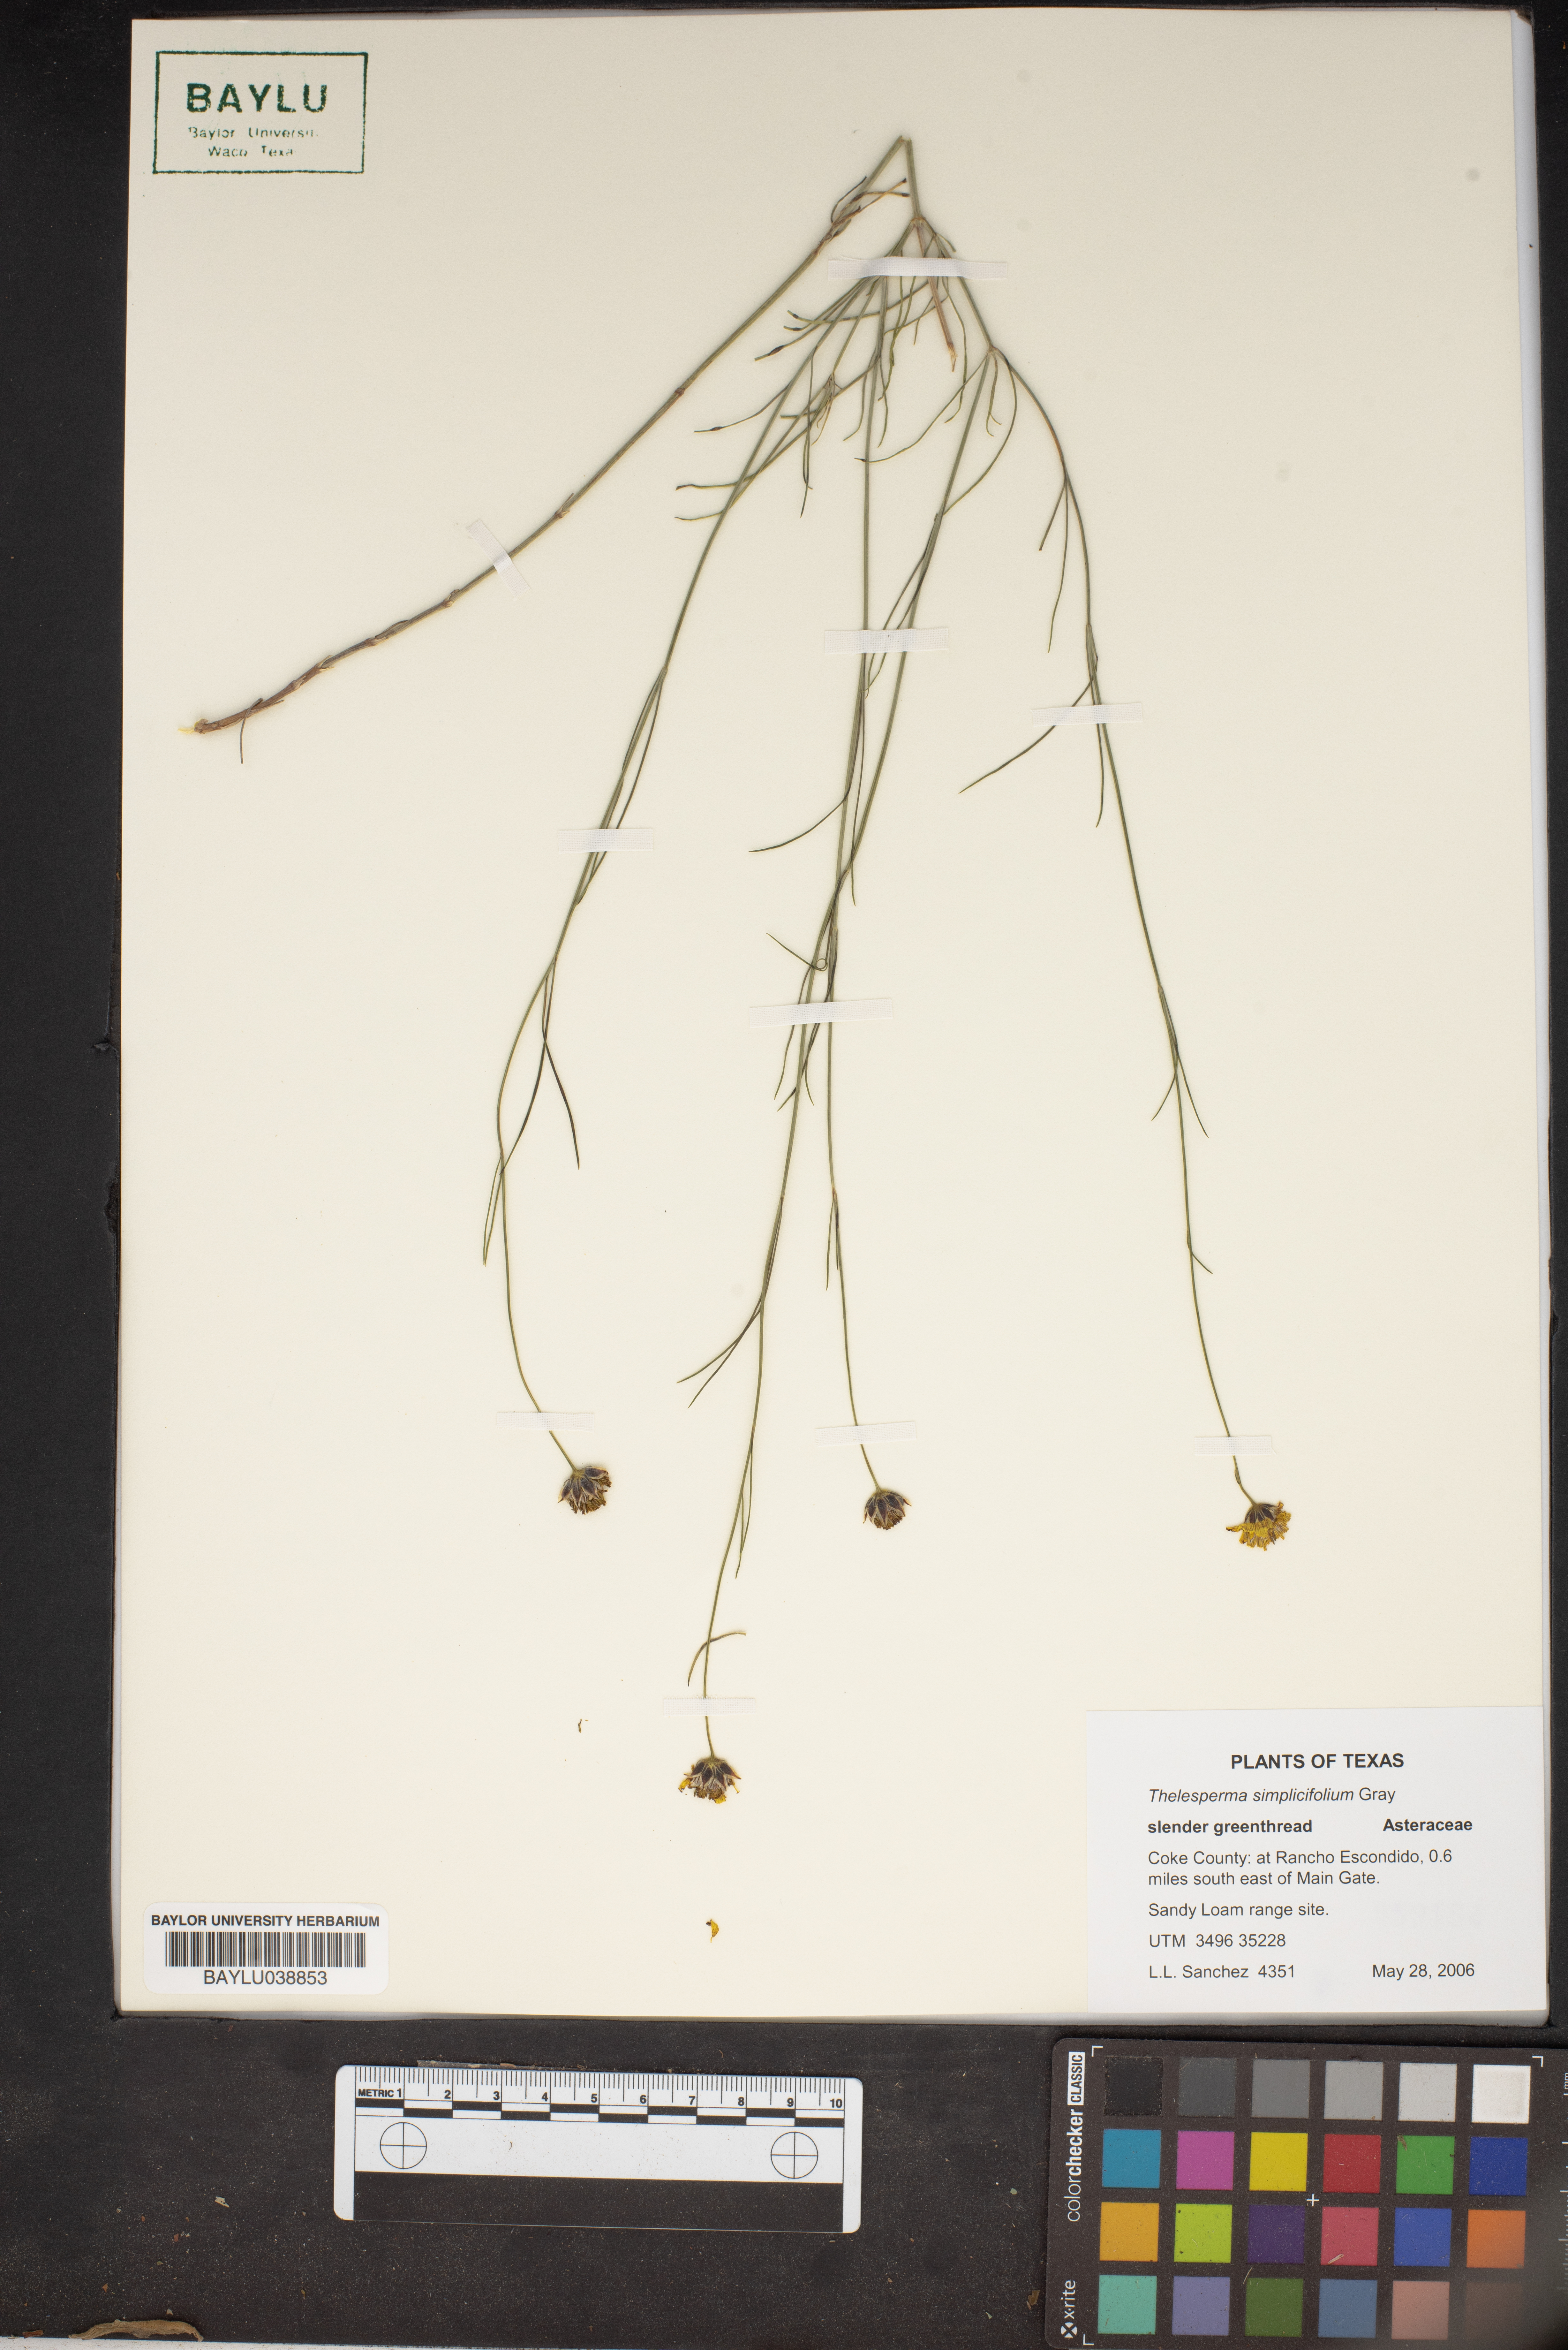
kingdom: Plantae
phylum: Tracheophyta
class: Magnoliopsida
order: Asterales
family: Asteraceae
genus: Thelesperma
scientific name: Thelesperma simplicifolium
